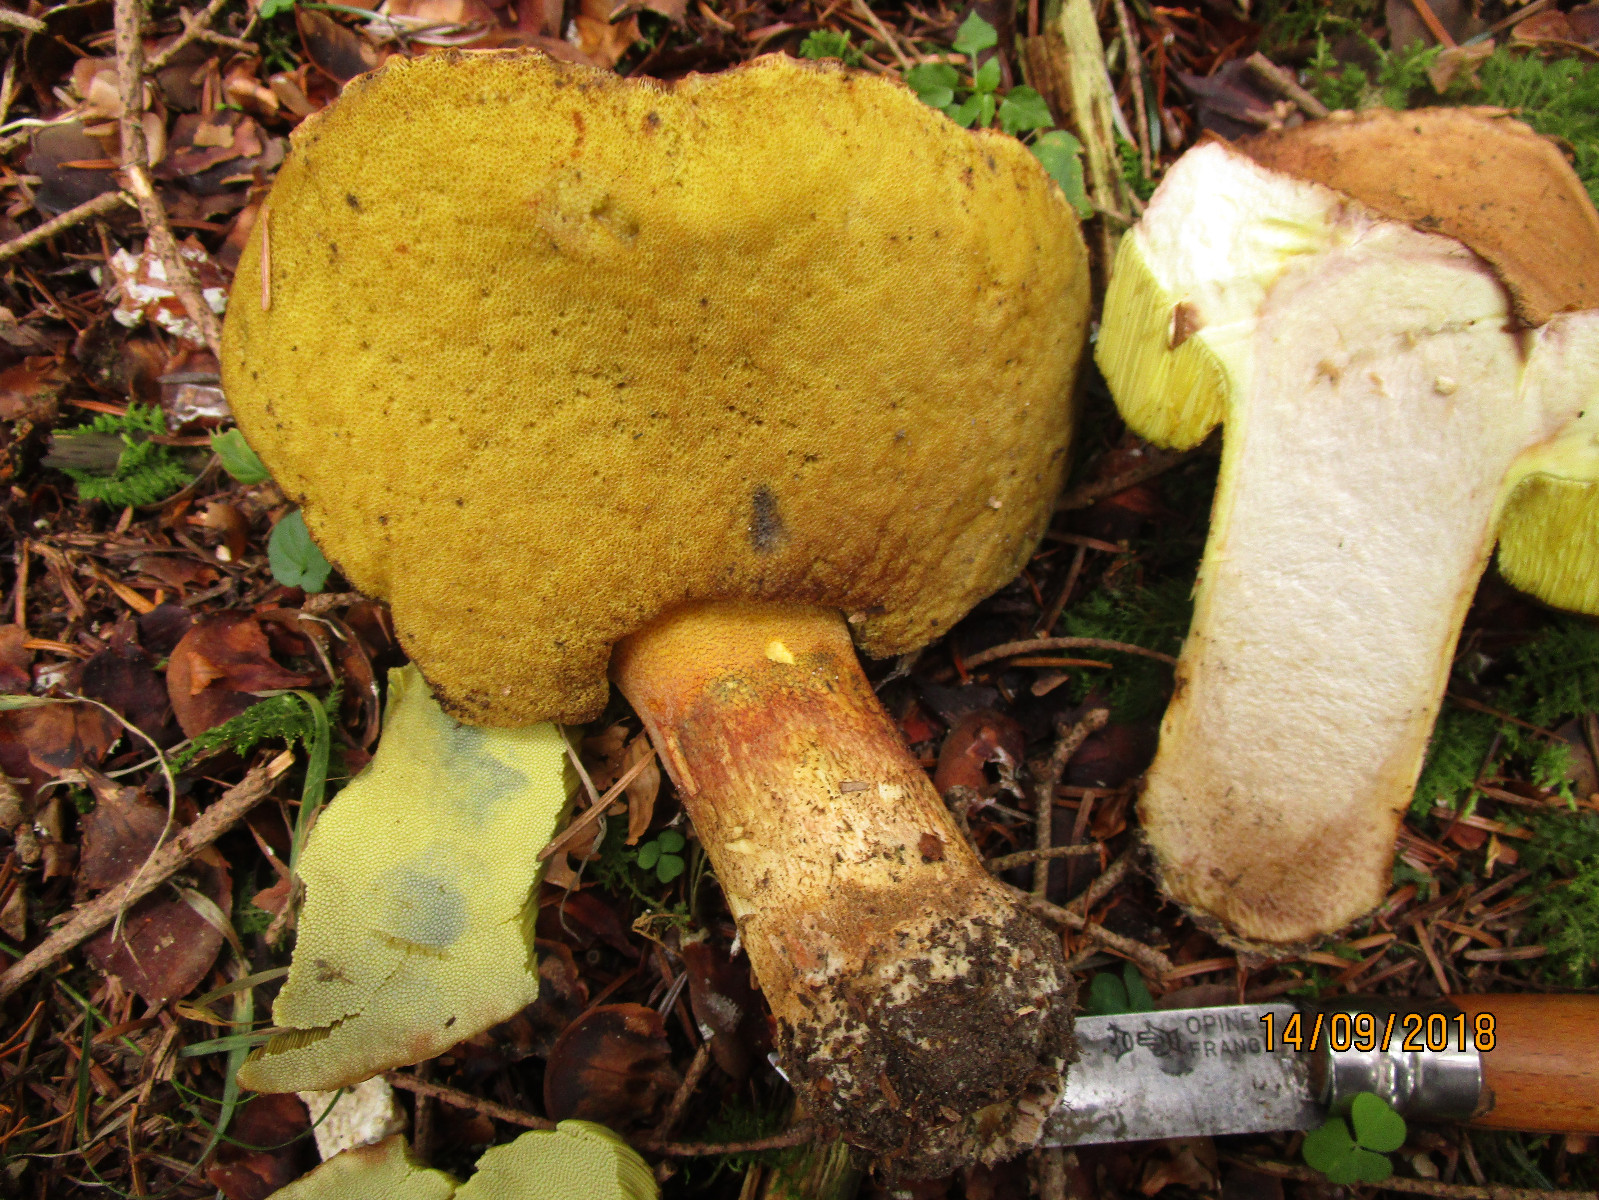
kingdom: Fungi
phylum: Basidiomycota
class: Agaricomycetes
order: Boletales
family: Boletaceae
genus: Butyriboletus
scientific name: Butyriboletus
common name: smørrørhat
